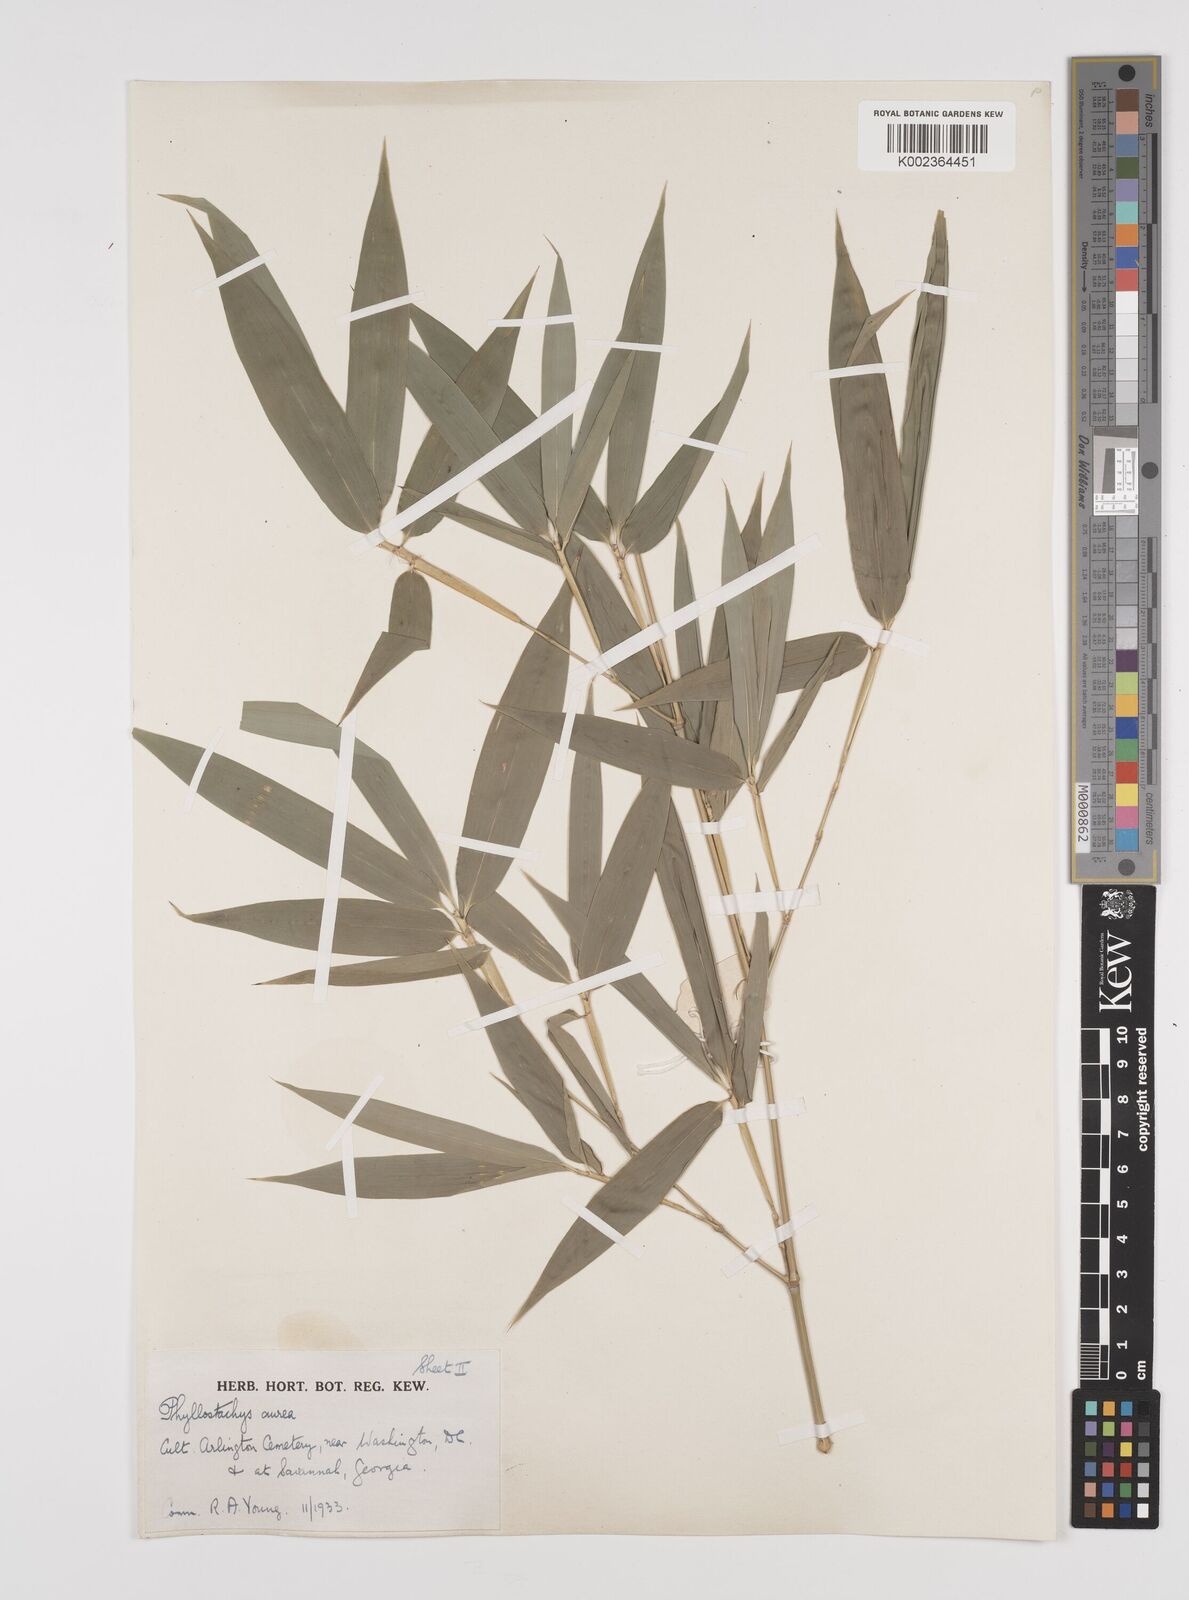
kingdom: Plantae
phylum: Tracheophyta
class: Liliopsida
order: Poales
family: Poaceae
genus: Phyllostachys
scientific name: Phyllostachys aurea
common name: Golden bamboo
